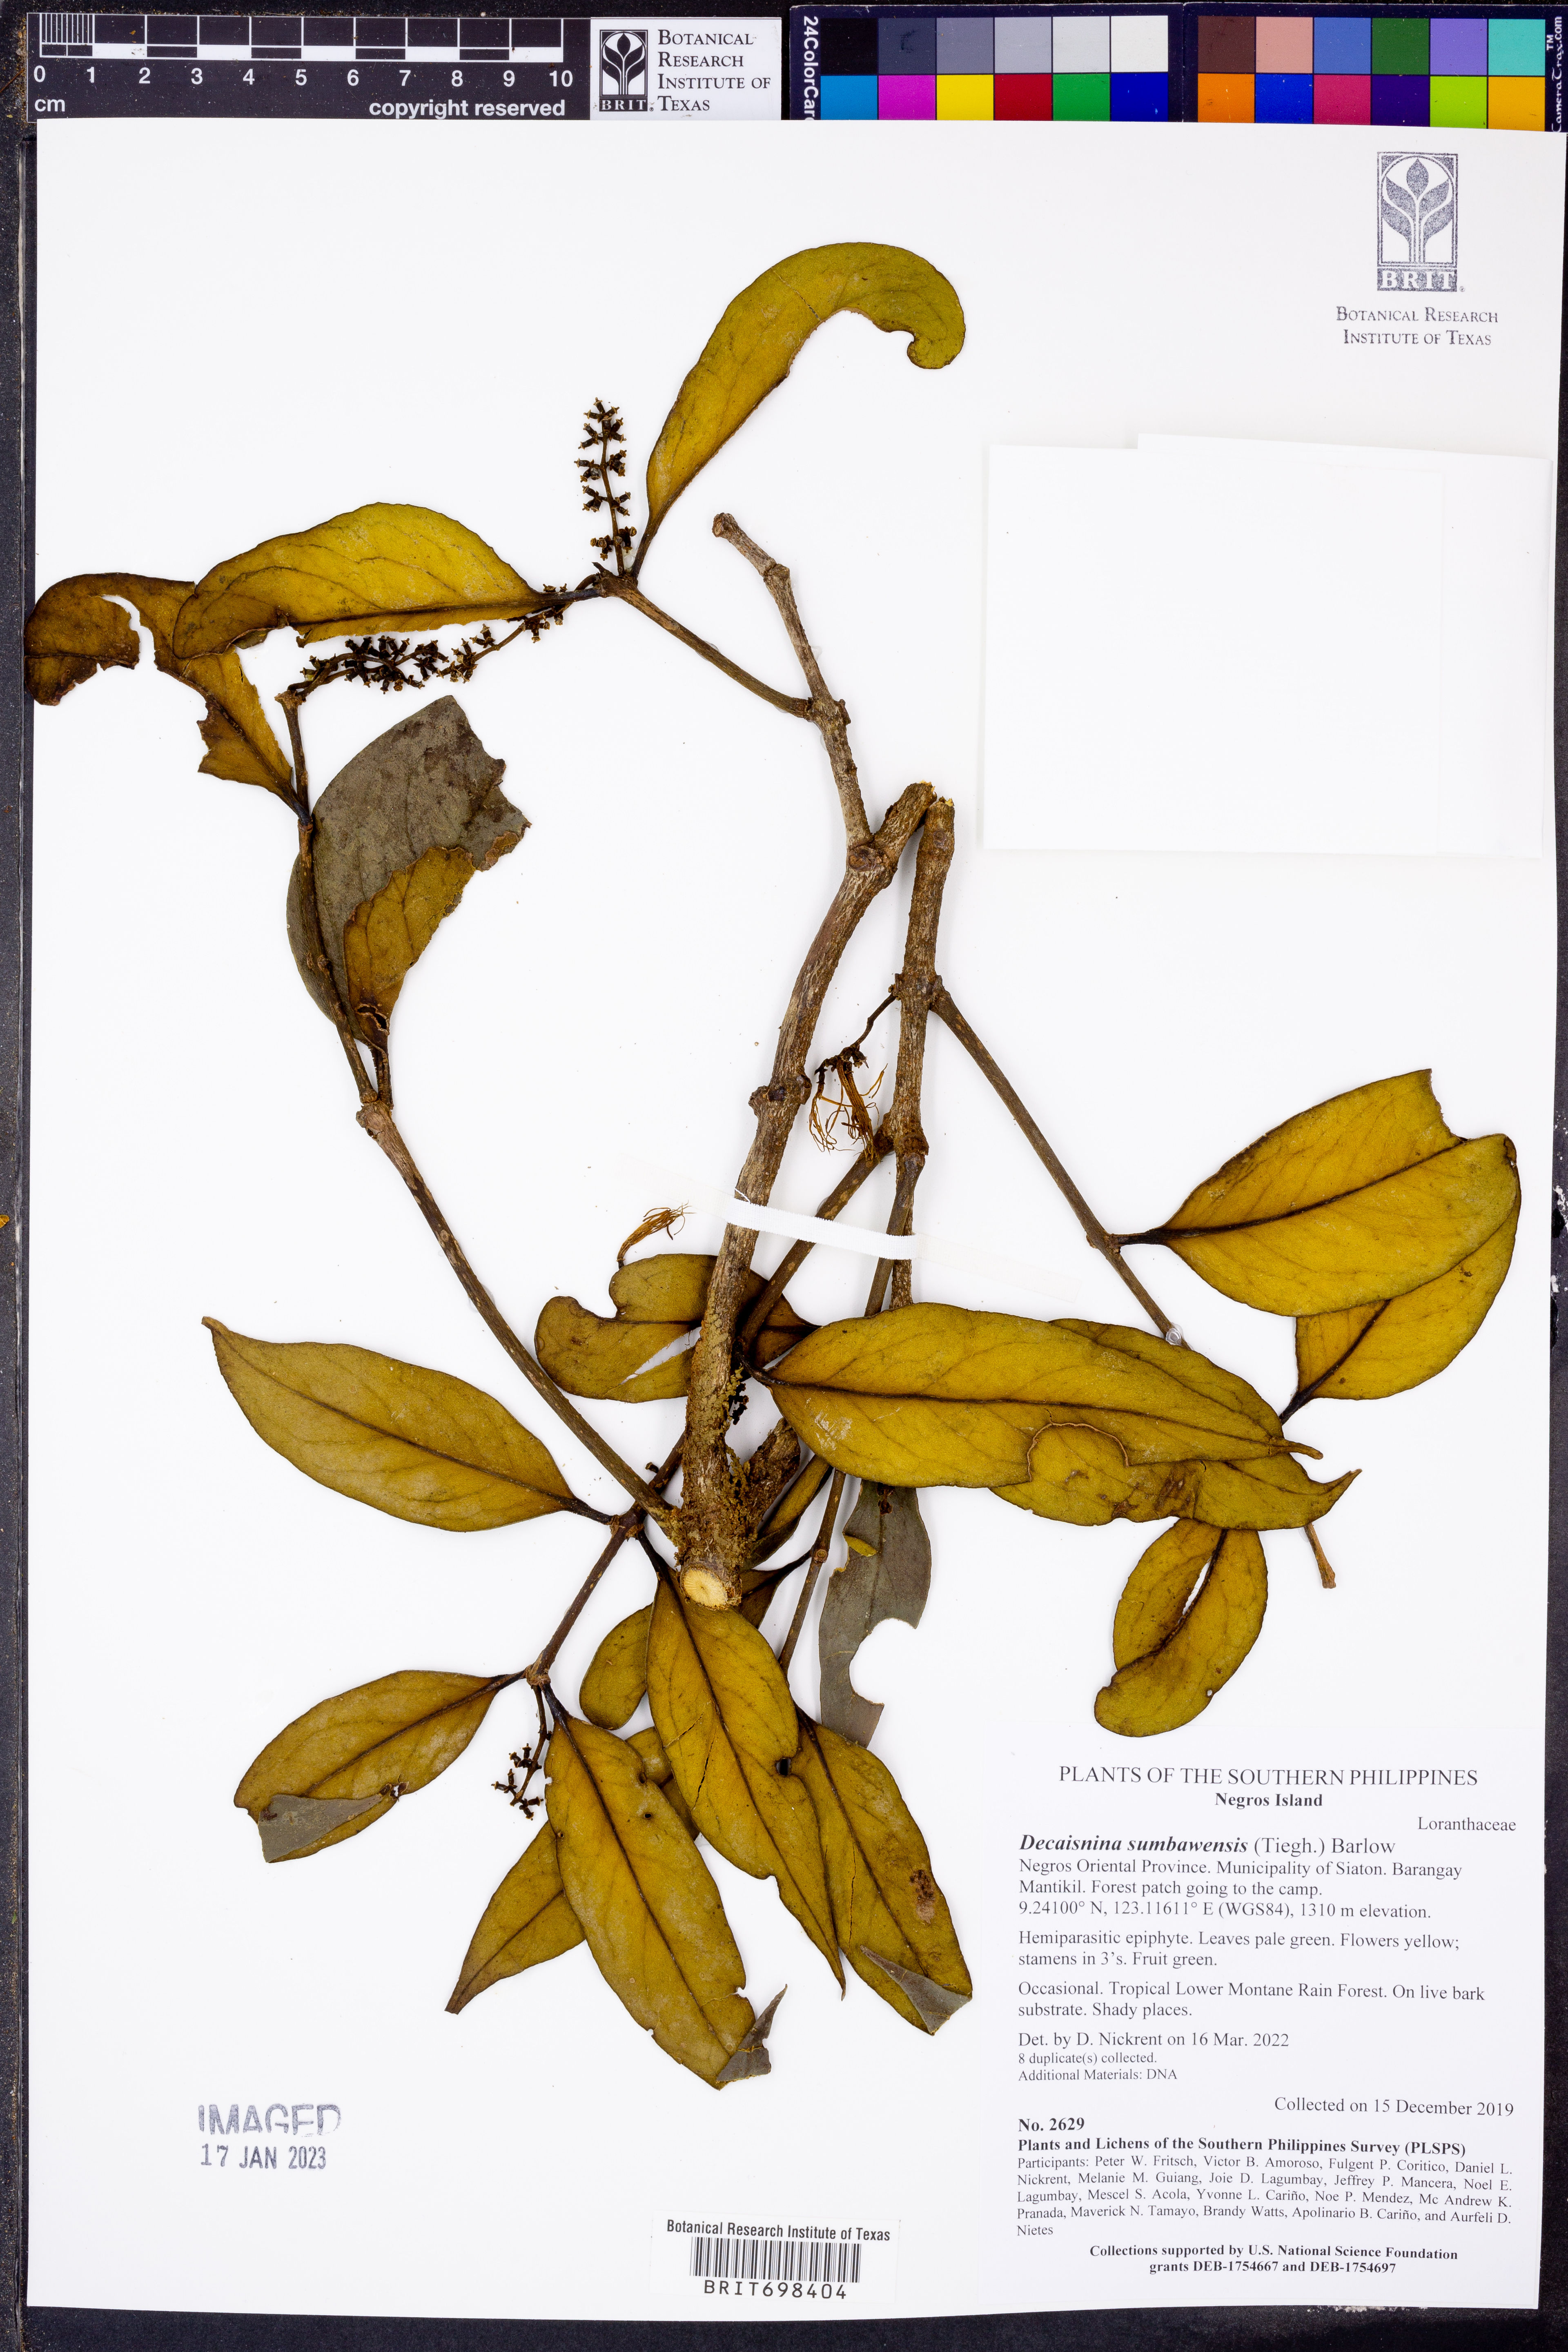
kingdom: Plantae
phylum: Tracheophyta
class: Magnoliopsida
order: Santalales
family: Loranthaceae
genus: Decaisnina
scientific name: Decaisnina sumbawensis
